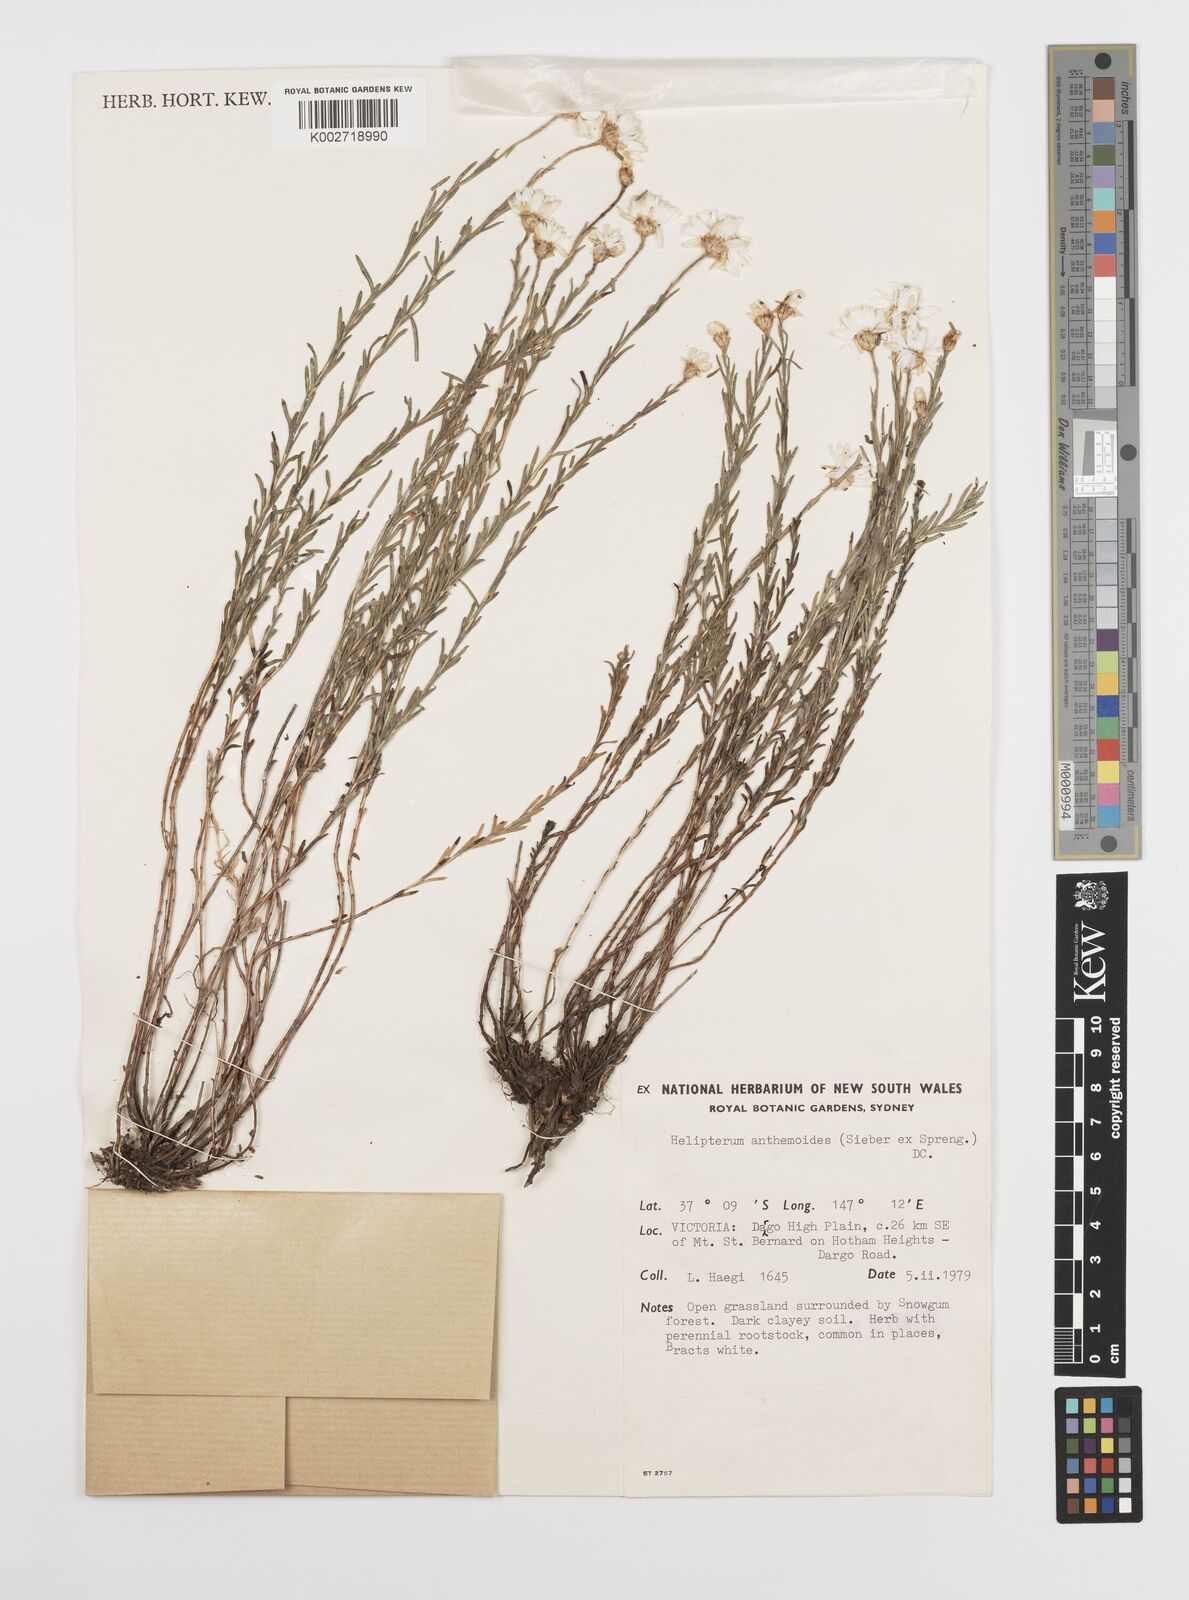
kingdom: Plantae
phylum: Tracheophyta
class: Magnoliopsida
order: Asterales
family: Asteraceae
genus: Rhodanthe
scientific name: Rhodanthe anthemoides
